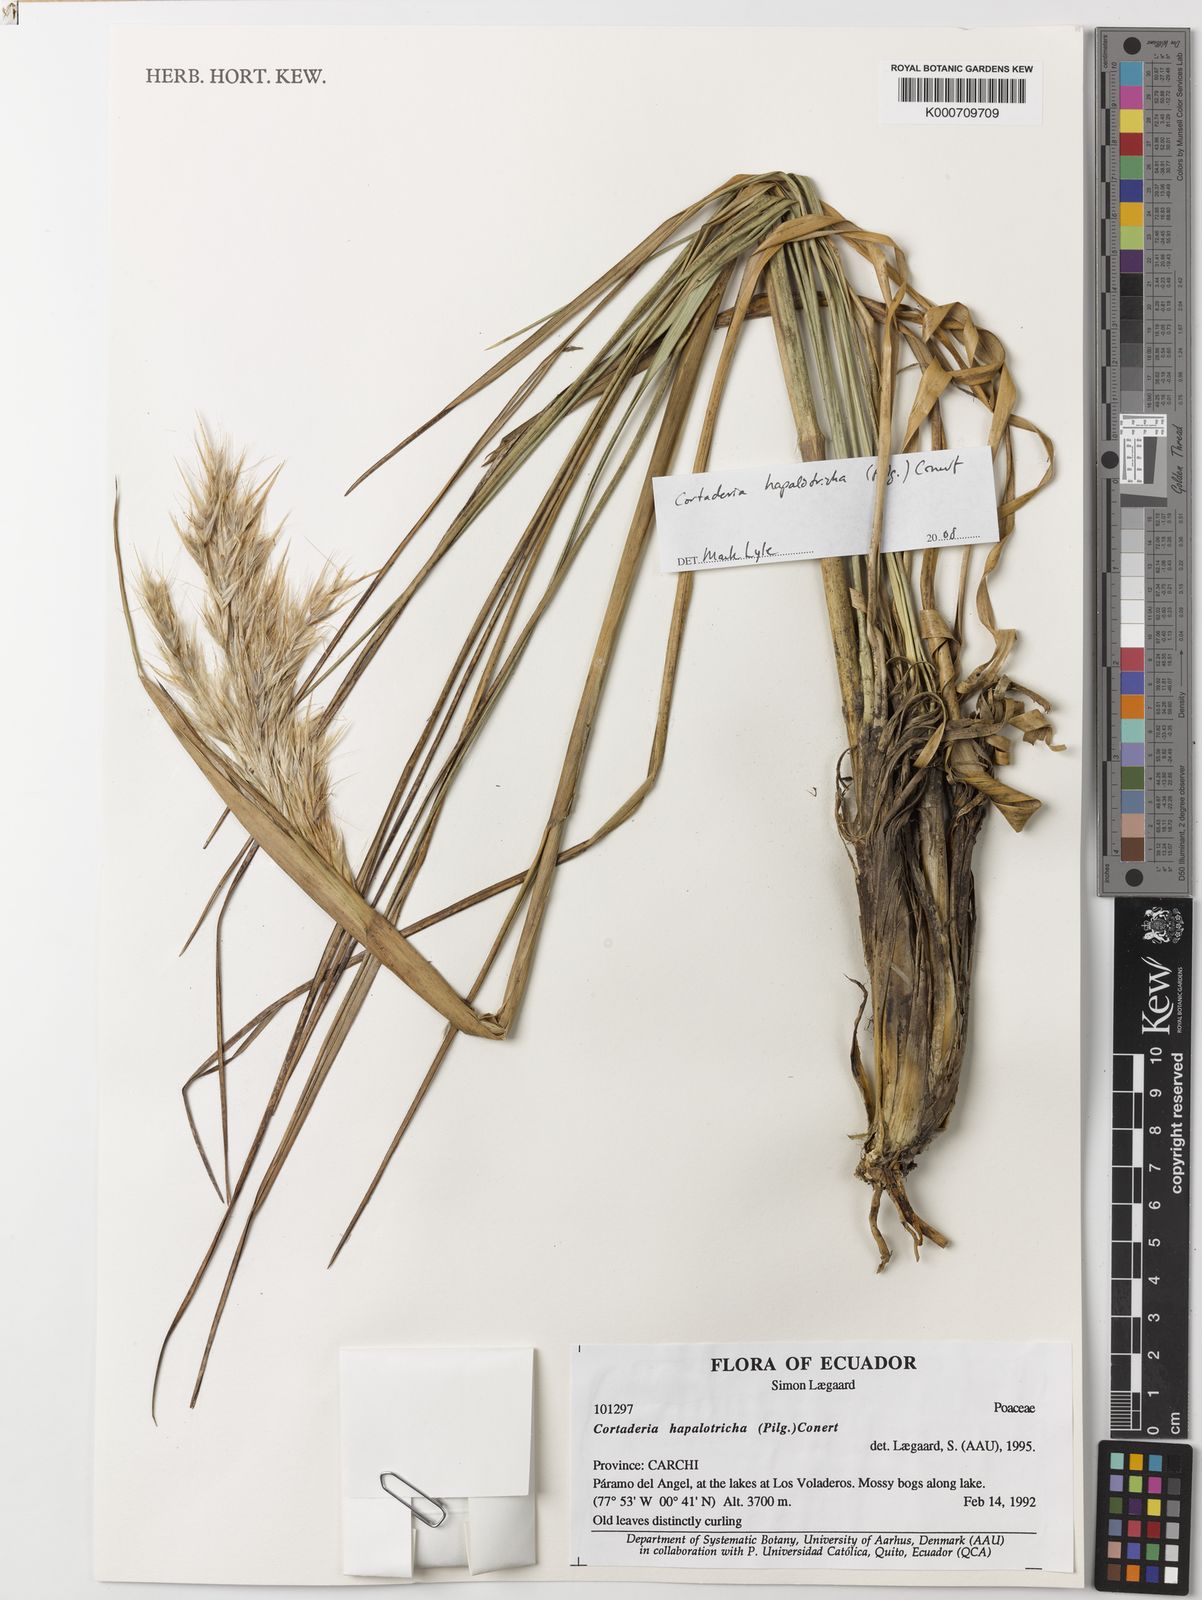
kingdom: Plantae
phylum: Tracheophyta
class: Liliopsida
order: Poales
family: Poaceae
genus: Cortaderia
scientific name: Cortaderia hapalotricha
